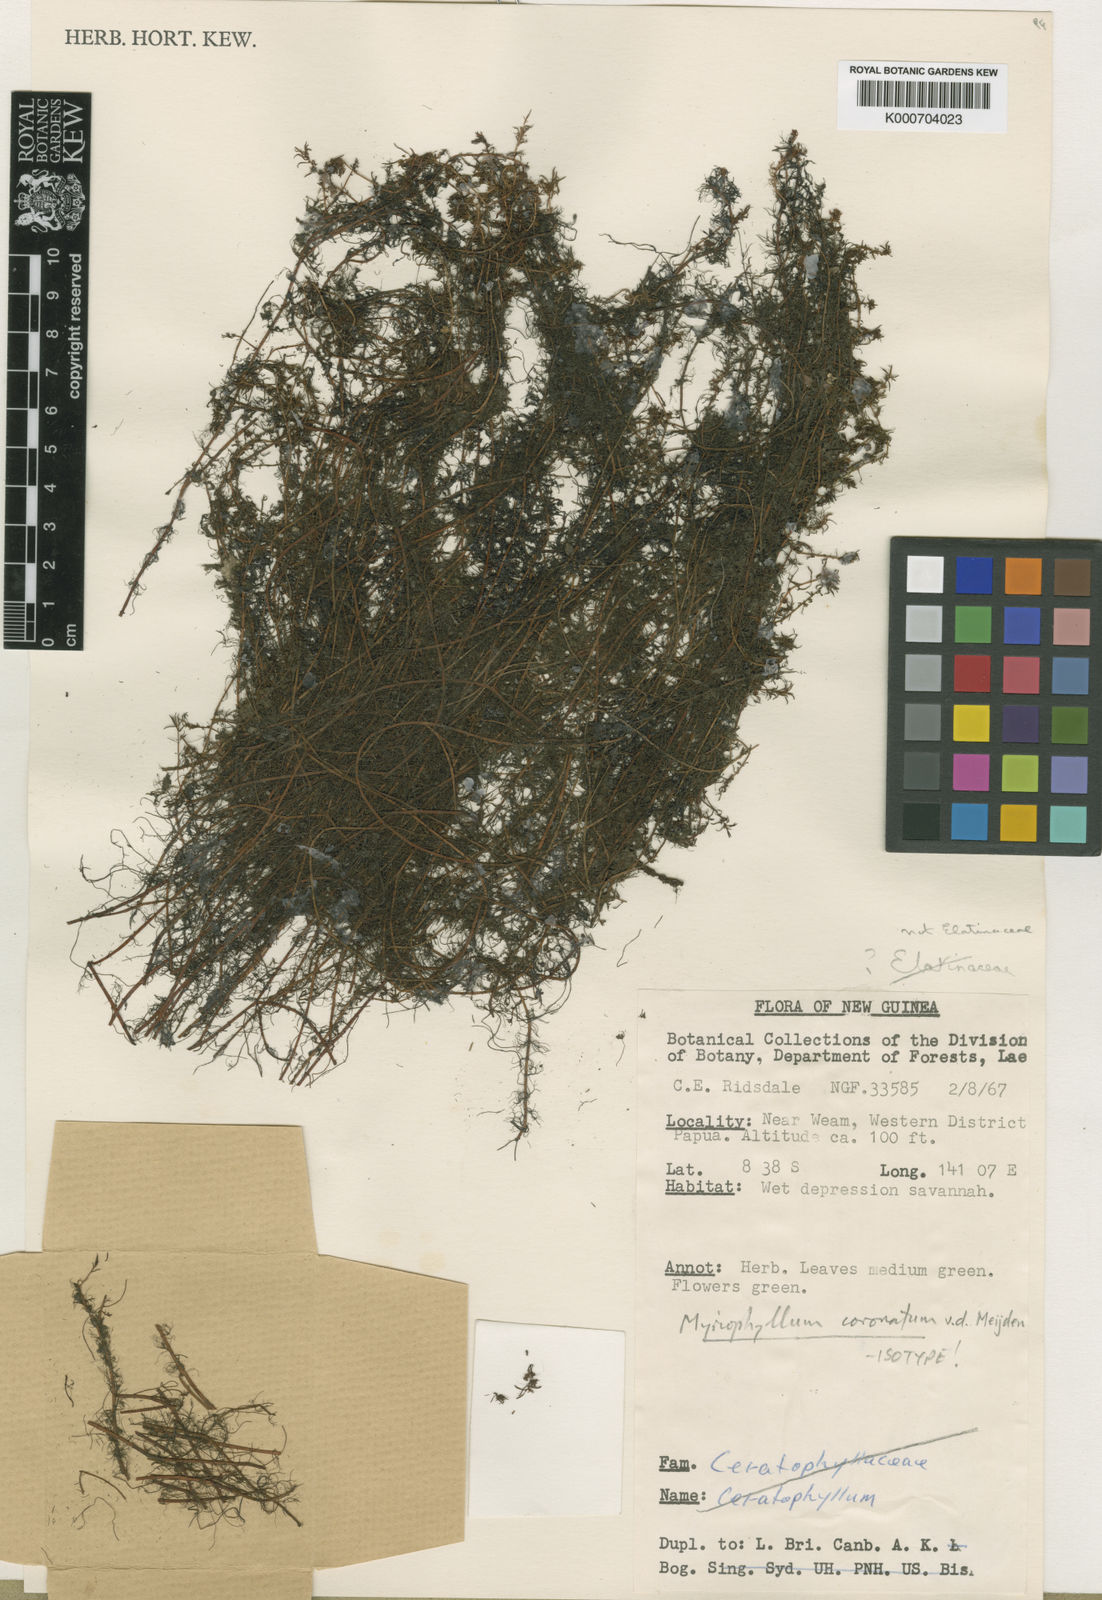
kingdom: Plantae
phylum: Tracheophyta
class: Magnoliopsida
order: Saxifragales
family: Haloragaceae
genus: Myriophyllum
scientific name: Myriophyllum coronatum
